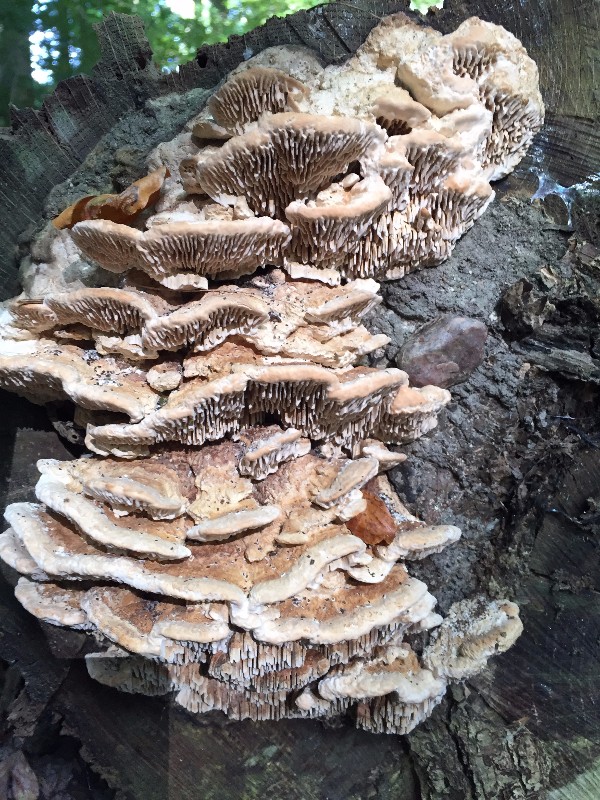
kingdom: Fungi
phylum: Basidiomycota
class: Agaricomycetes
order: Polyporales
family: Fomitopsidaceae
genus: Daedalea
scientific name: Daedalea quercina
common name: ege-labyrintsvamp
